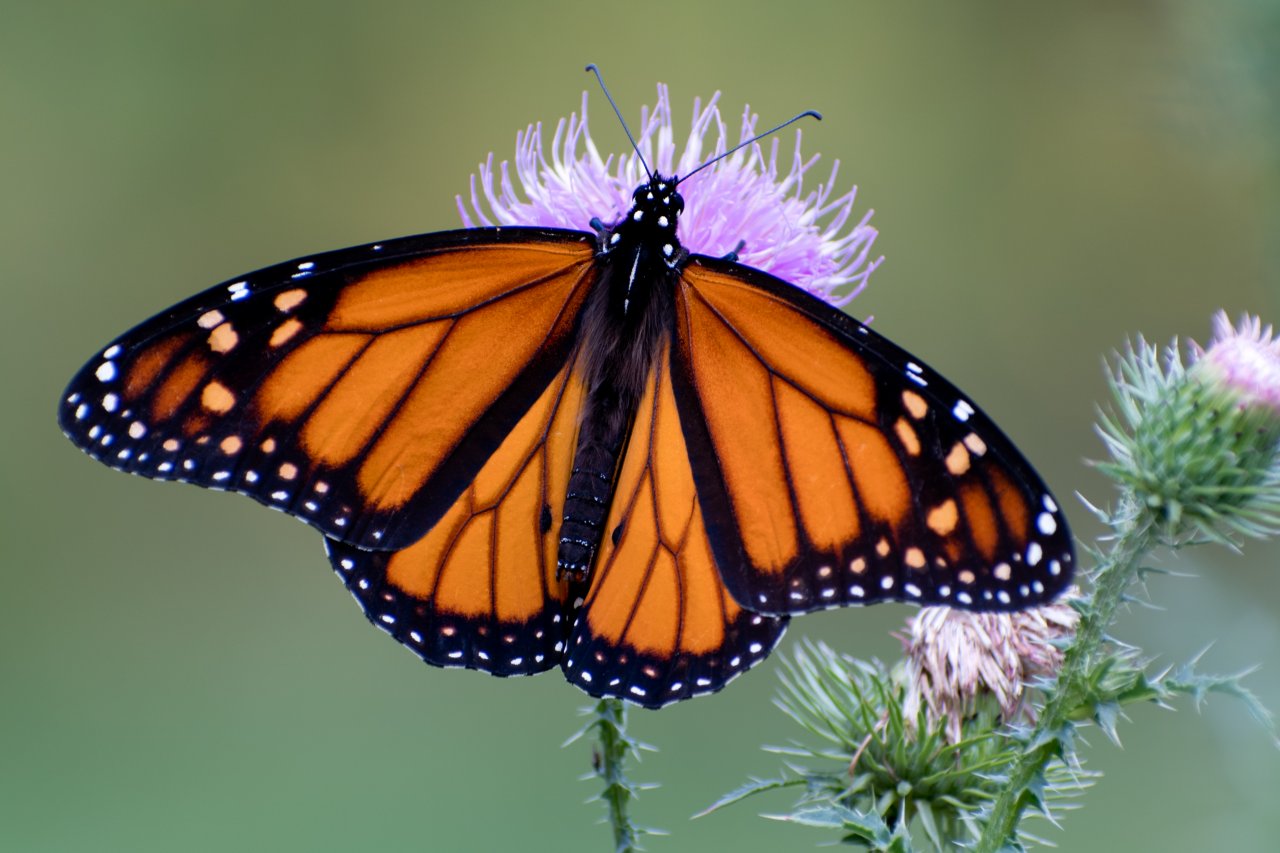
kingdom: Animalia
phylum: Arthropoda
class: Insecta
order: Lepidoptera
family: Nymphalidae
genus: Danaus
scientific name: Danaus plexippus
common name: Monarch
